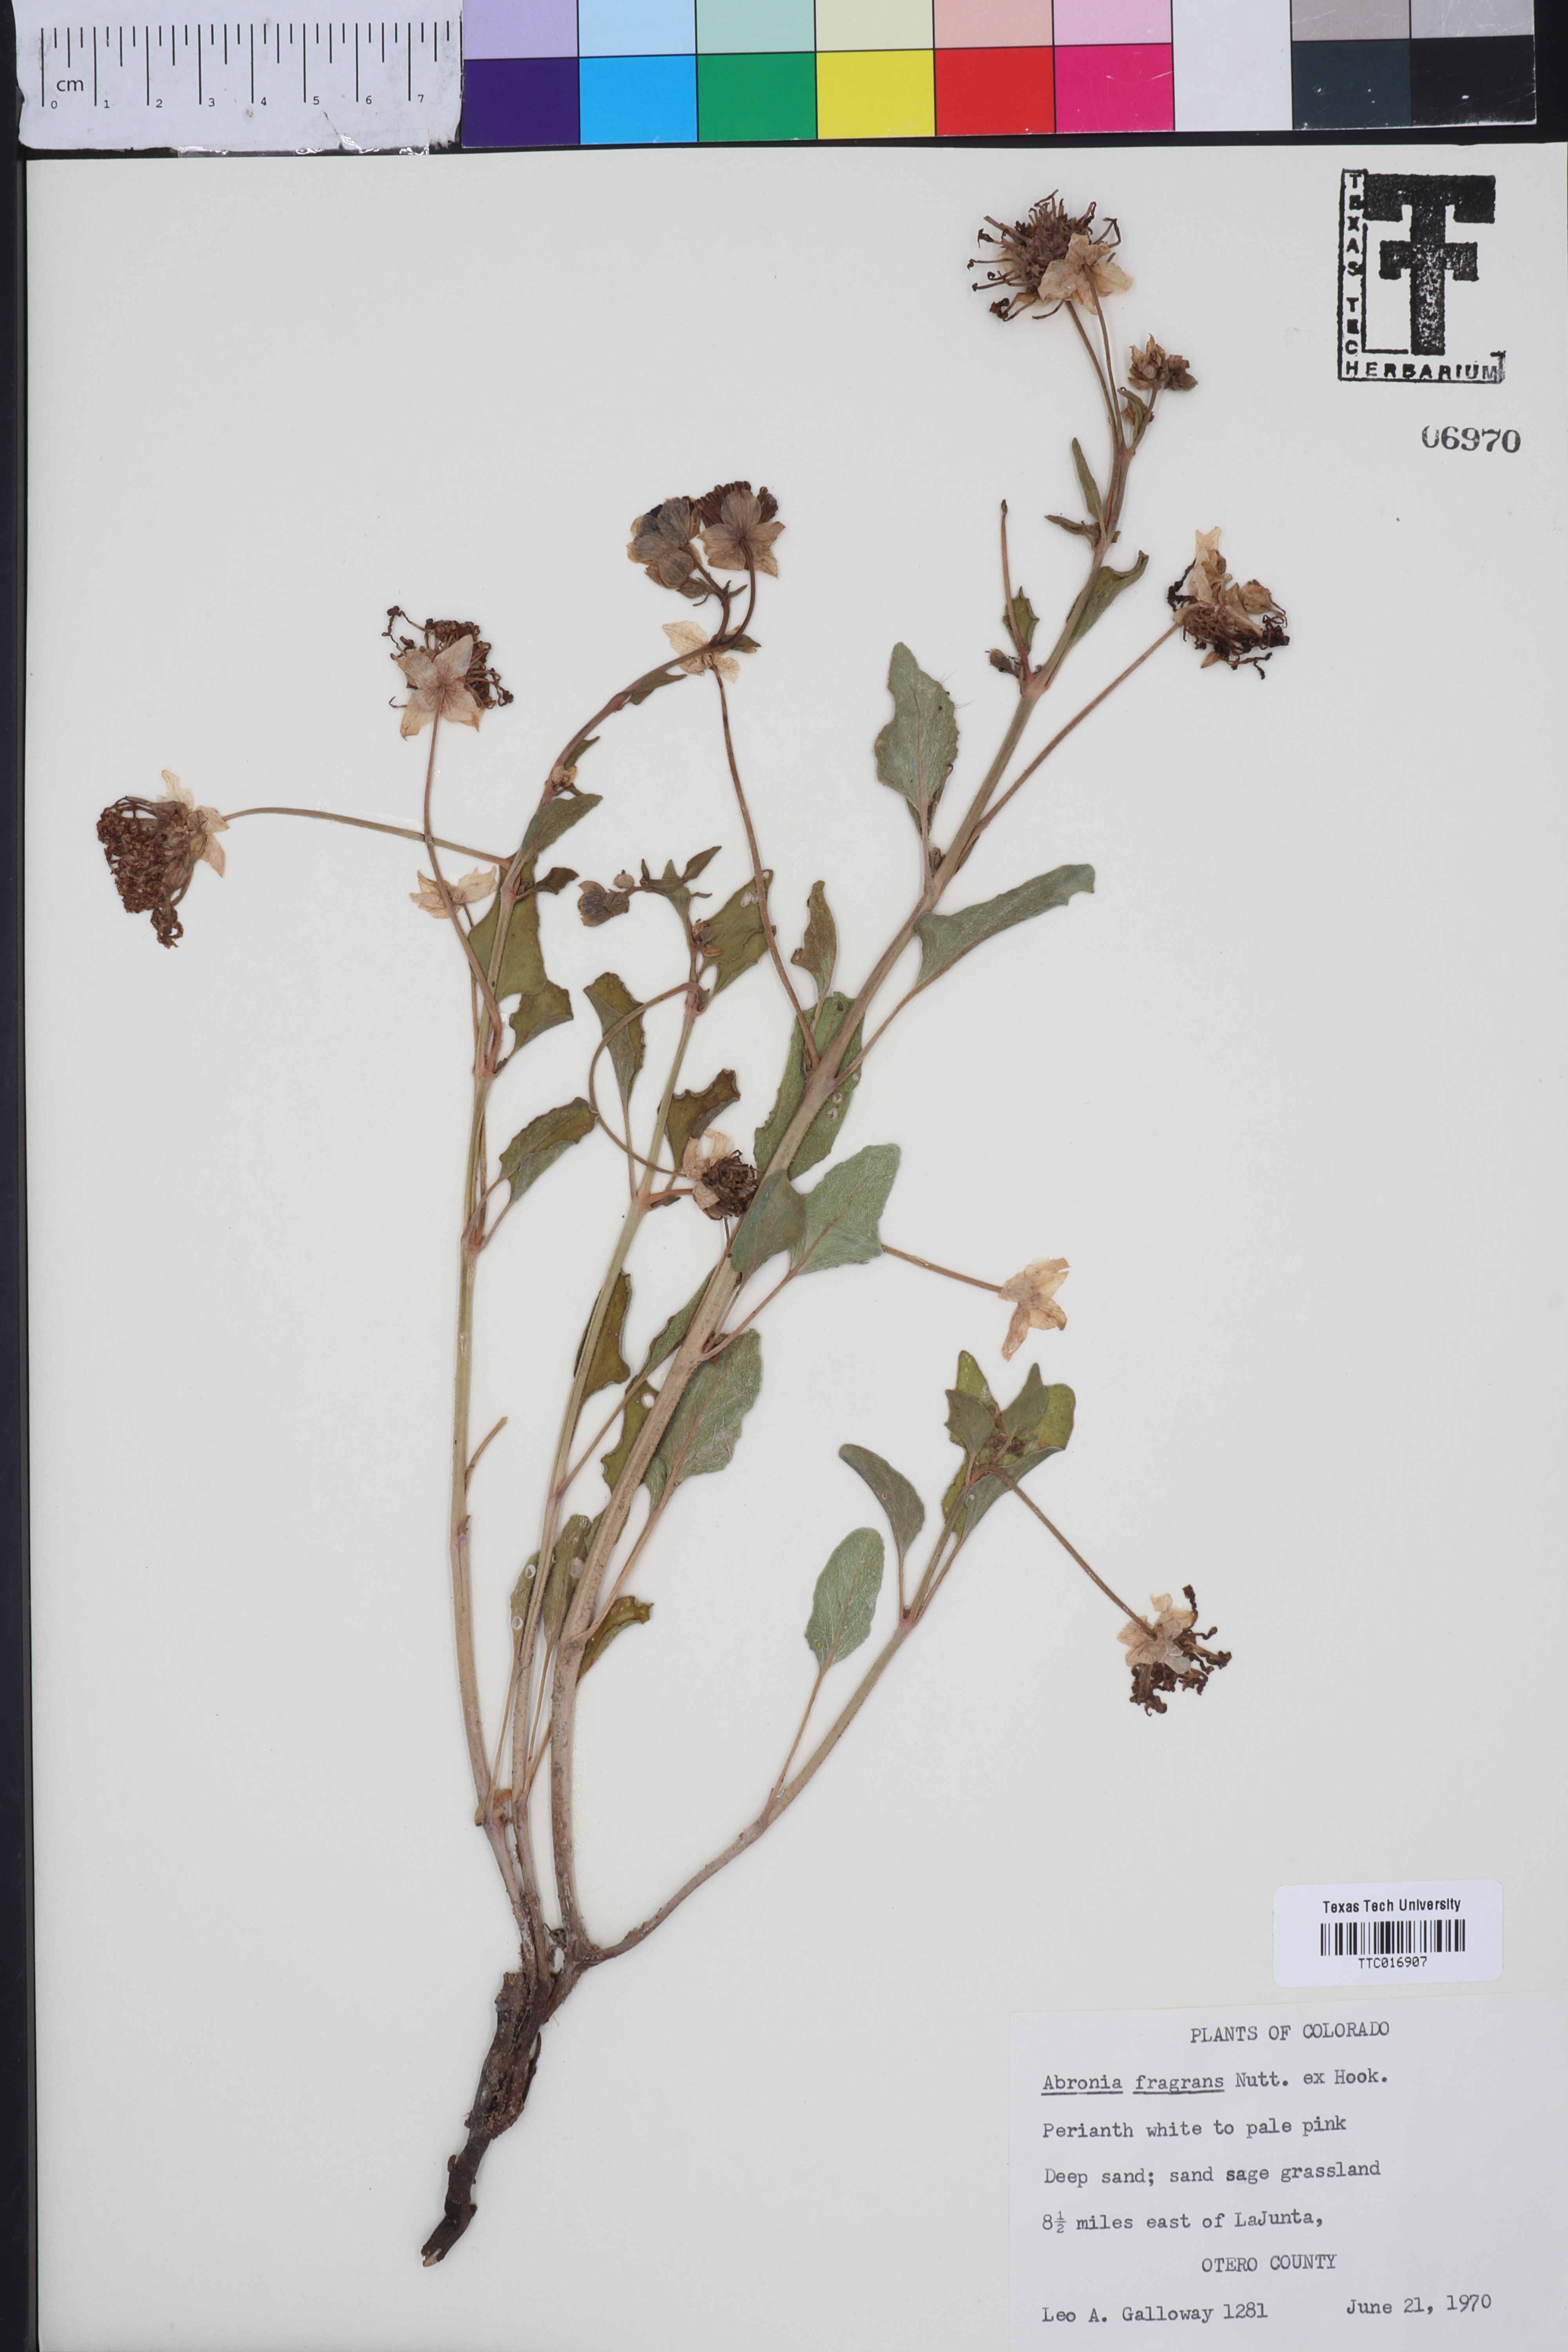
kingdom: Plantae
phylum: Tracheophyta
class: Magnoliopsida
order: Caryophyllales
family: Nyctaginaceae
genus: Abronia
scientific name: Abronia fragrans
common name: Fragrant sand-verbena
